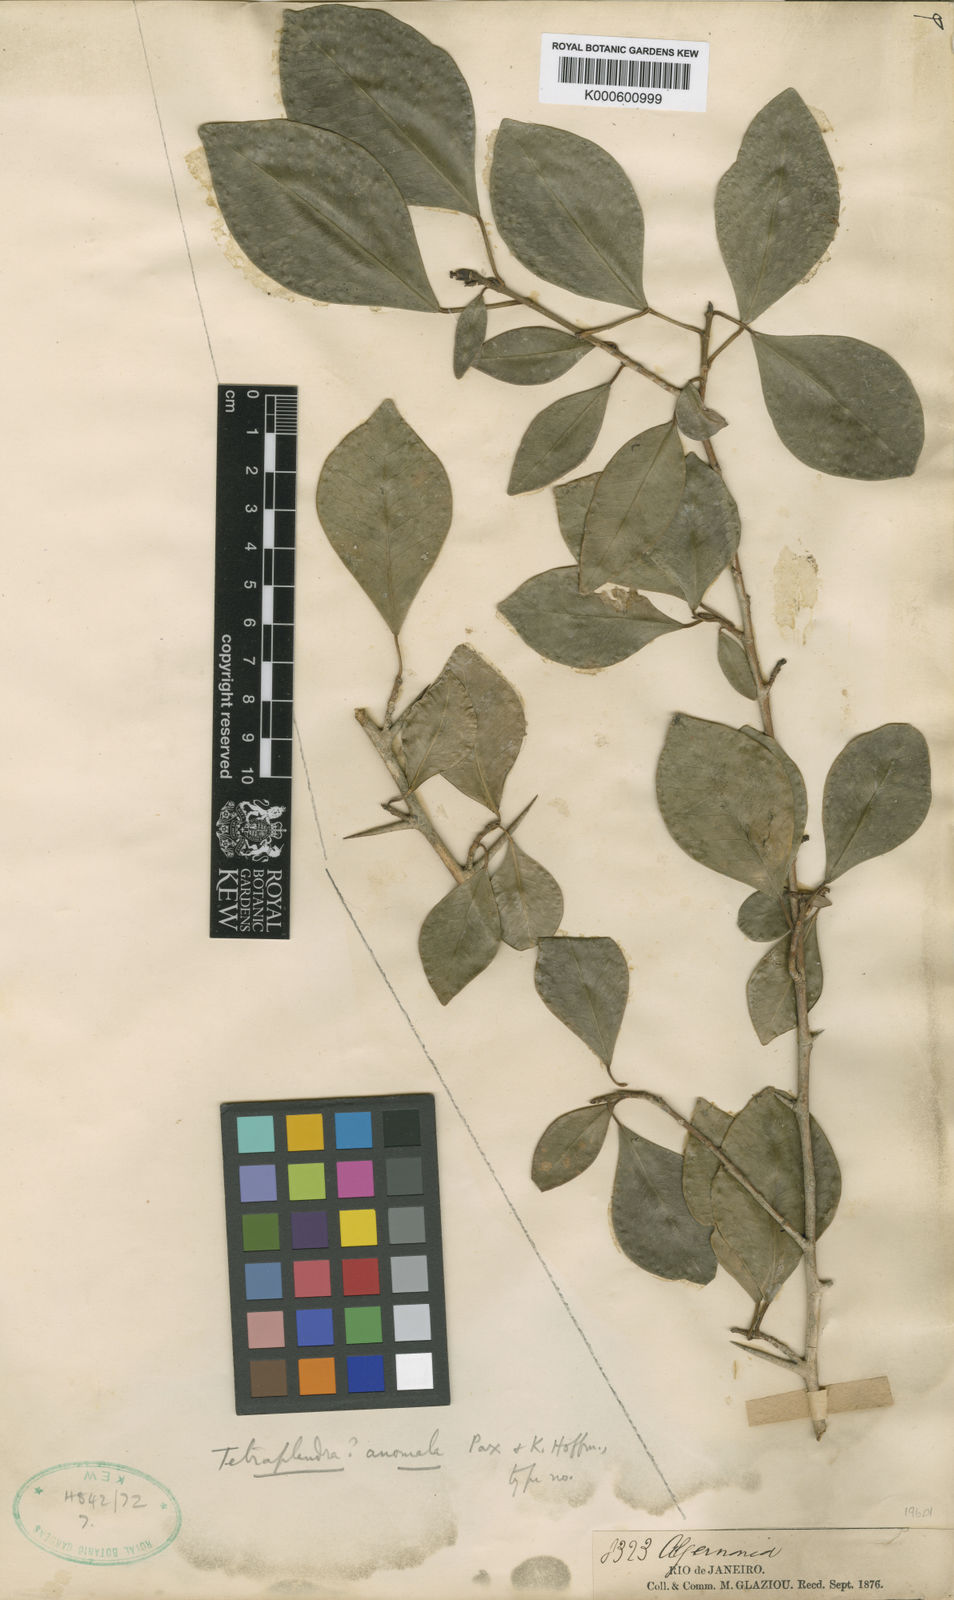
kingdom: Plantae
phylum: Tracheophyta
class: Magnoliopsida
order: Malpighiales
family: Euphorbiaceae
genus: Algernonia
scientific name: Algernonia Tetraplandra anomala
